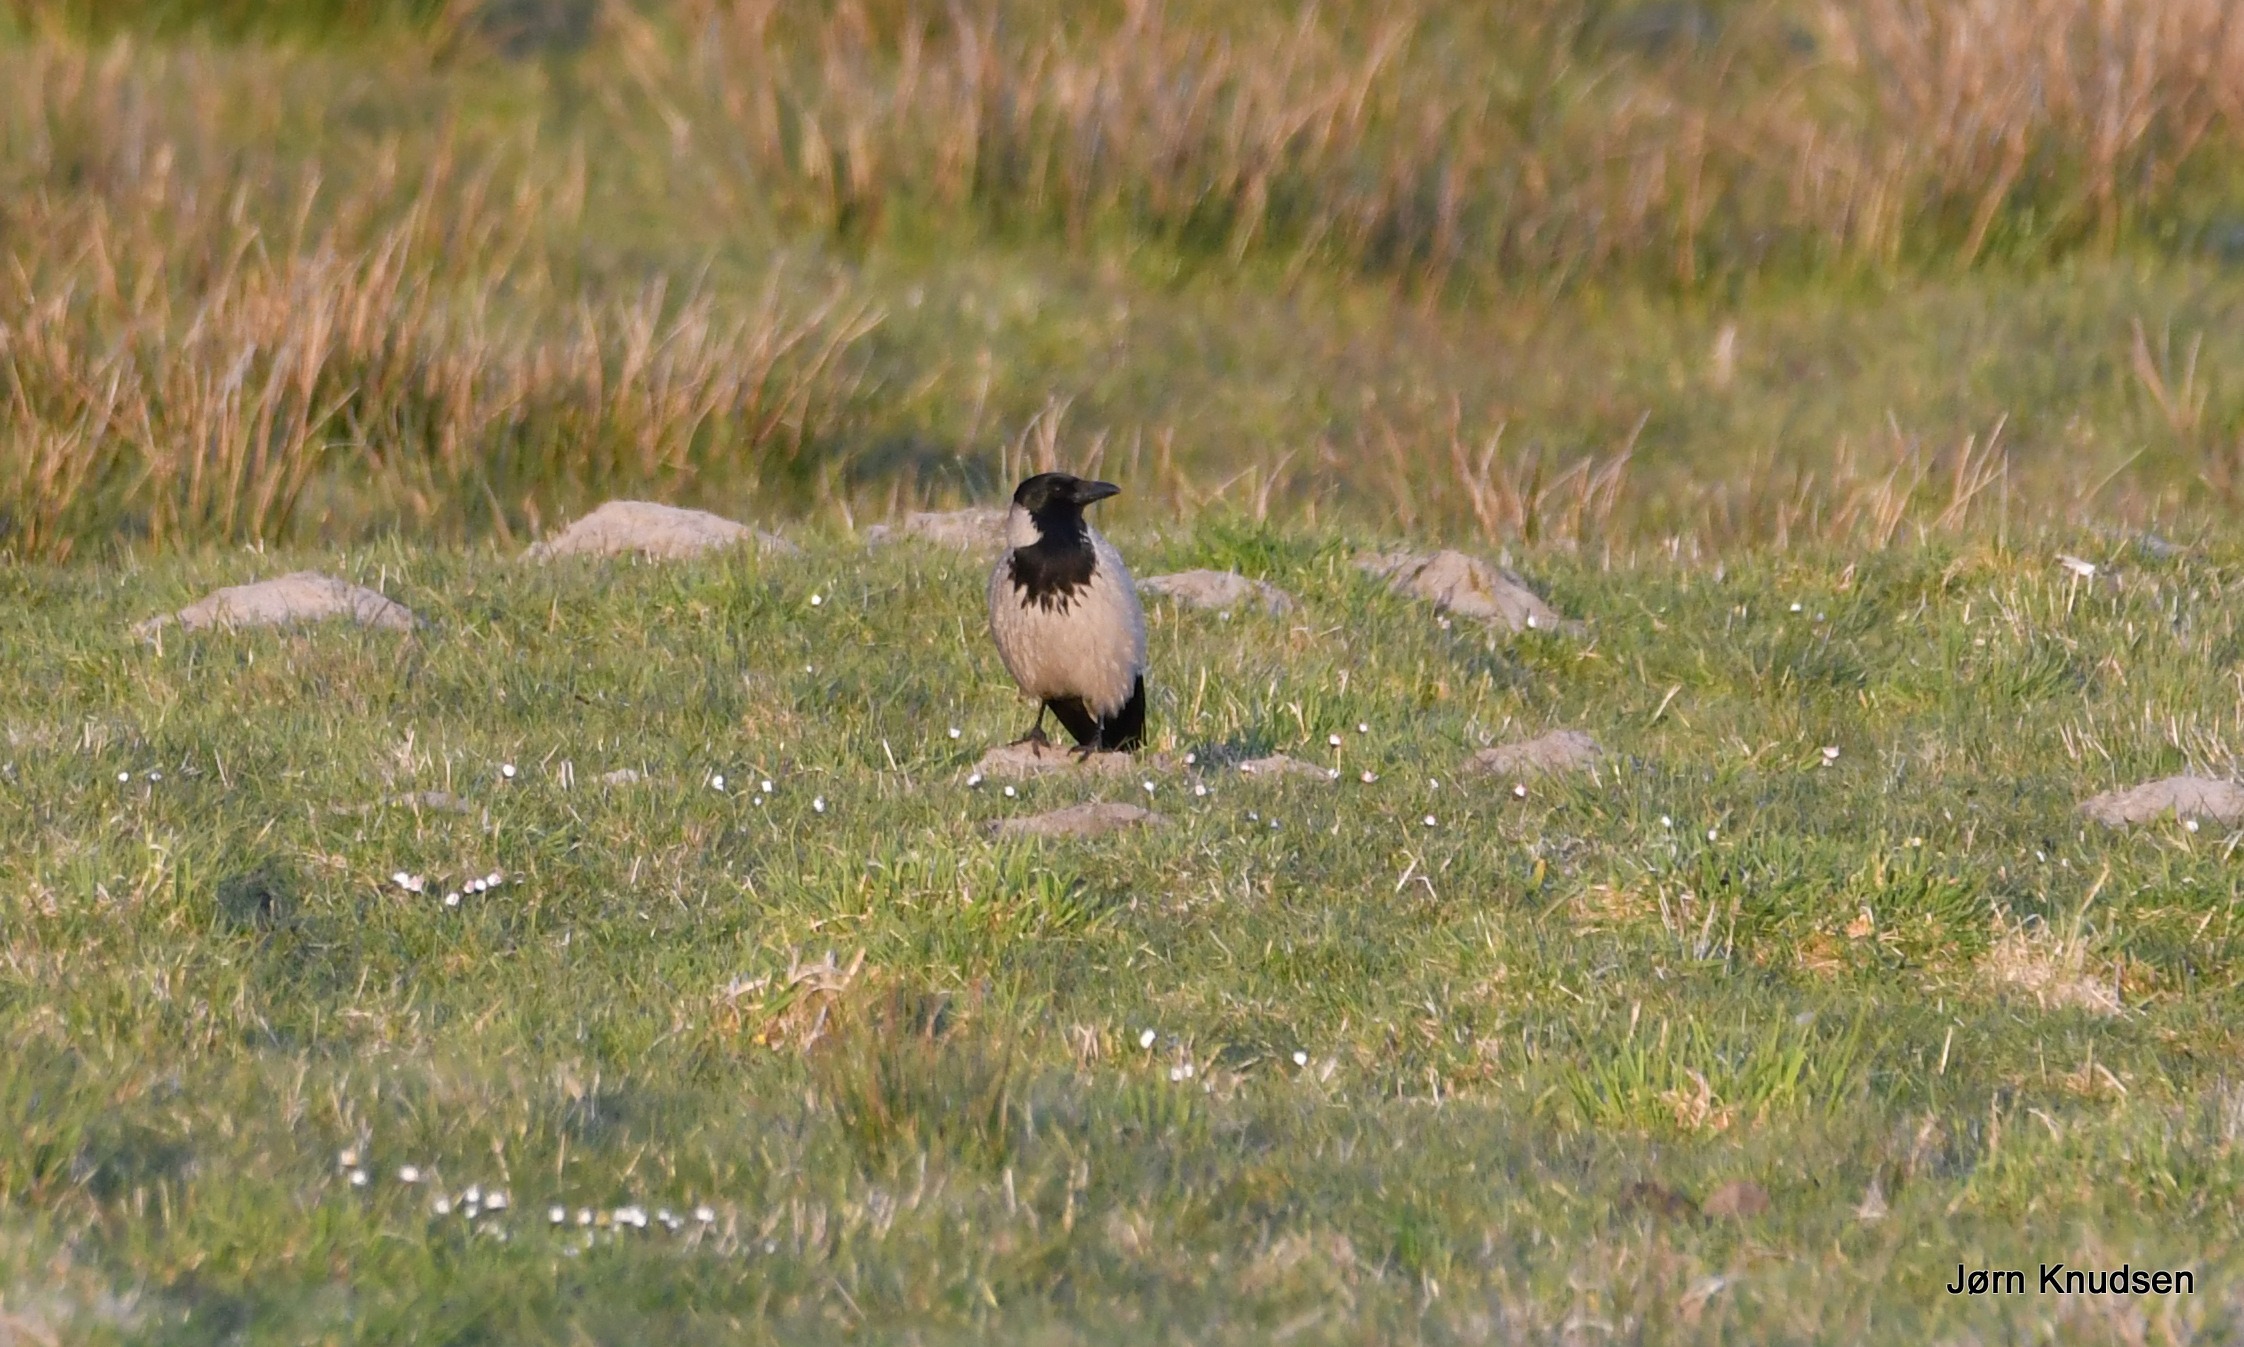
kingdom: Animalia
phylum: Chordata
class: Aves
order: Passeriformes
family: Corvidae
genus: Corvus
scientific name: Corvus cornix
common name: Gråkrage
